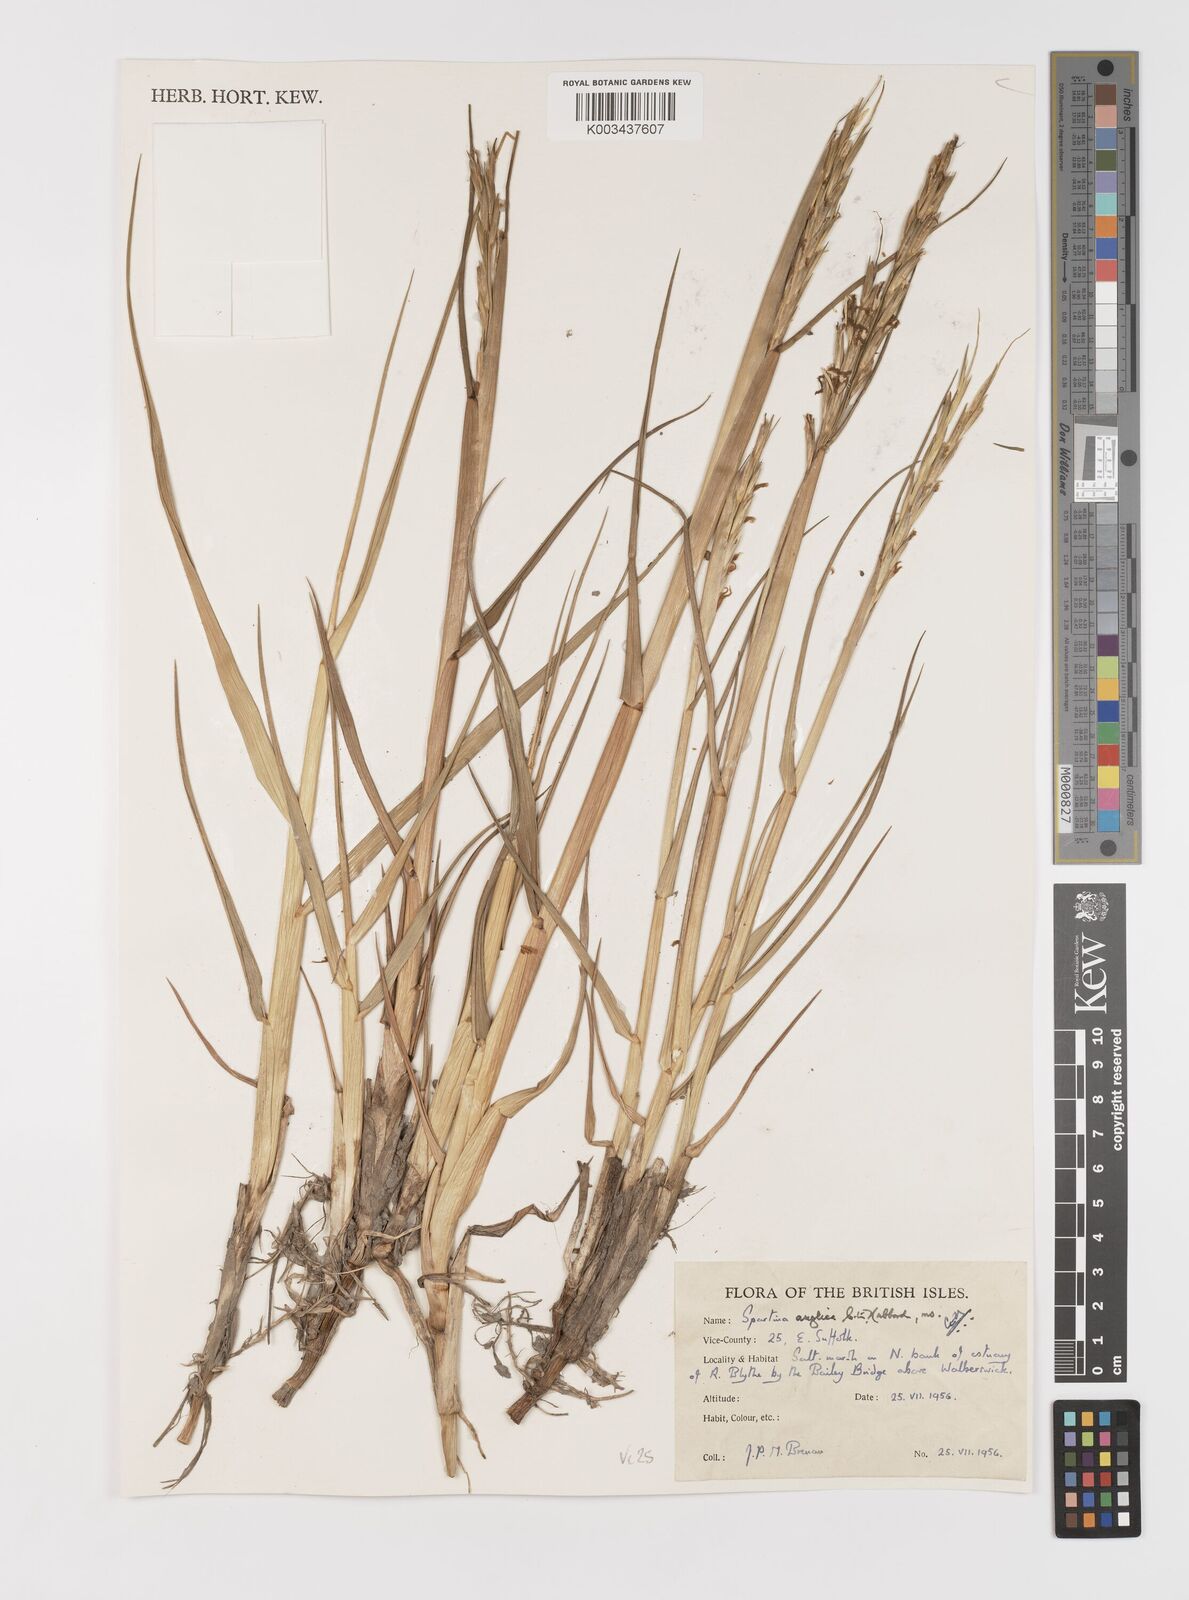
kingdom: Plantae
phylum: Tracheophyta
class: Liliopsida
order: Poales
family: Poaceae
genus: Sporobolus
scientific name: Sporobolus anglicus
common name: English cordgrass
